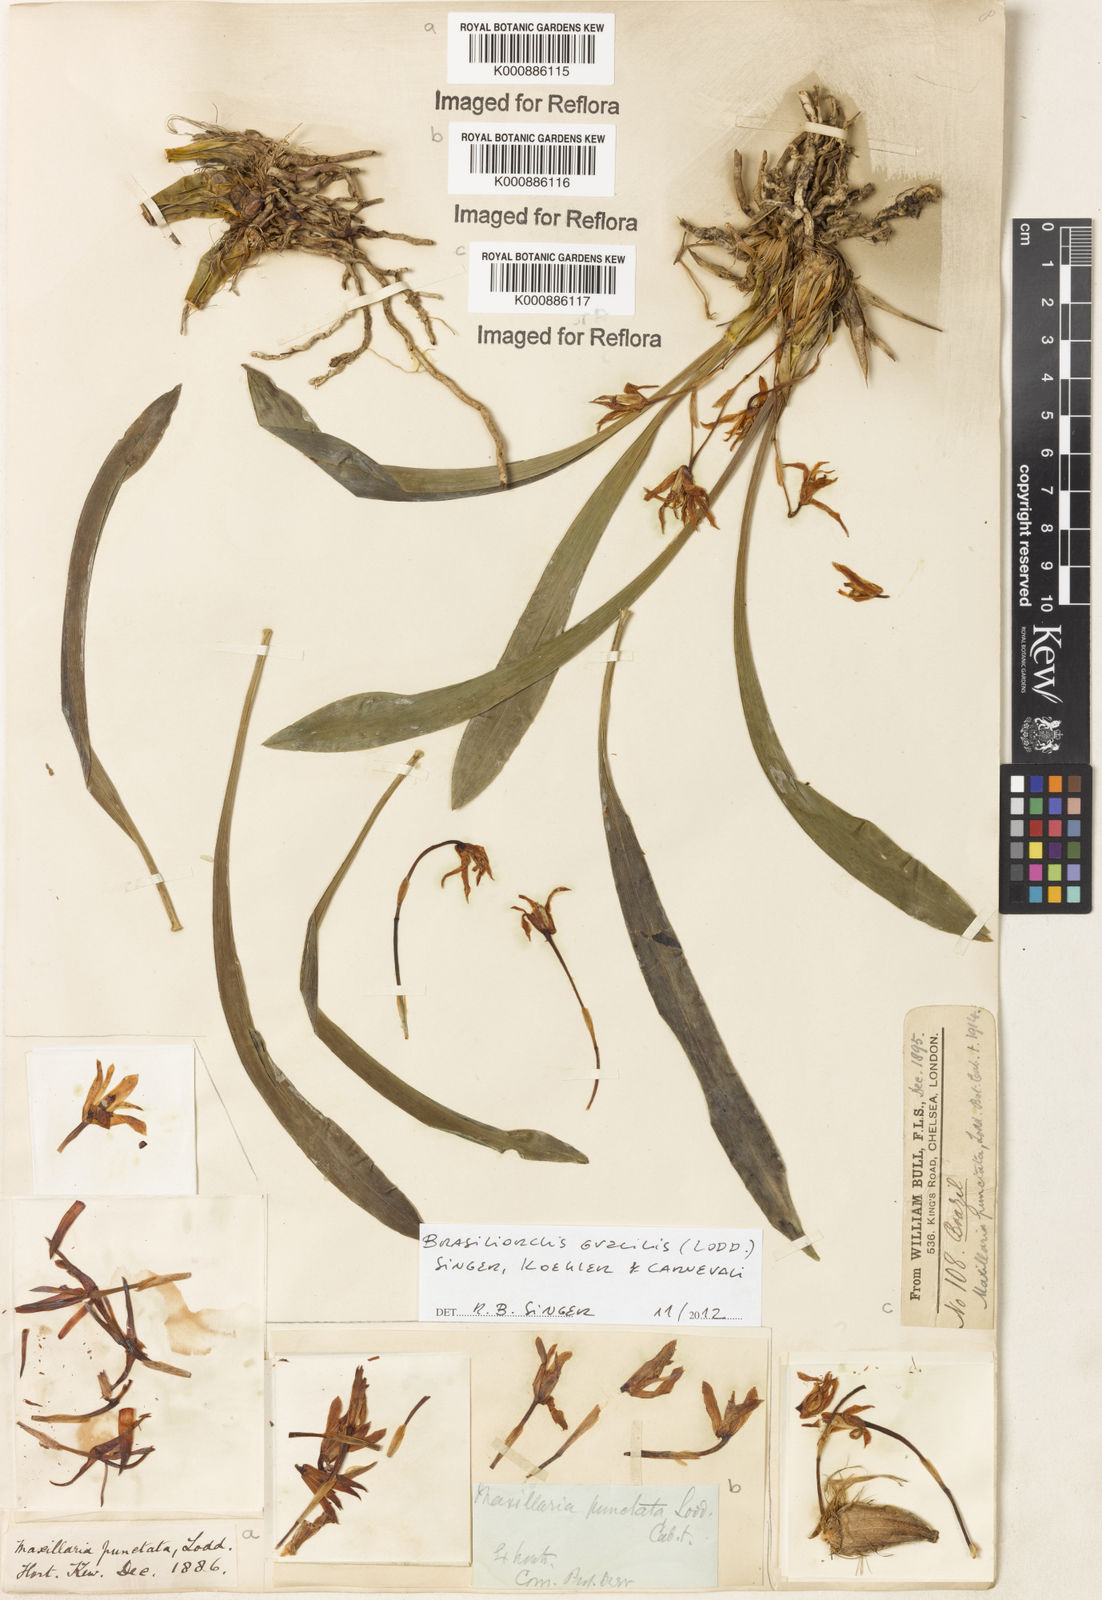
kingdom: Plantae
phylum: Tracheophyta
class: Liliopsida
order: Asparagales
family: Orchidaceae
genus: Maxillaria
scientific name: Maxillaria
